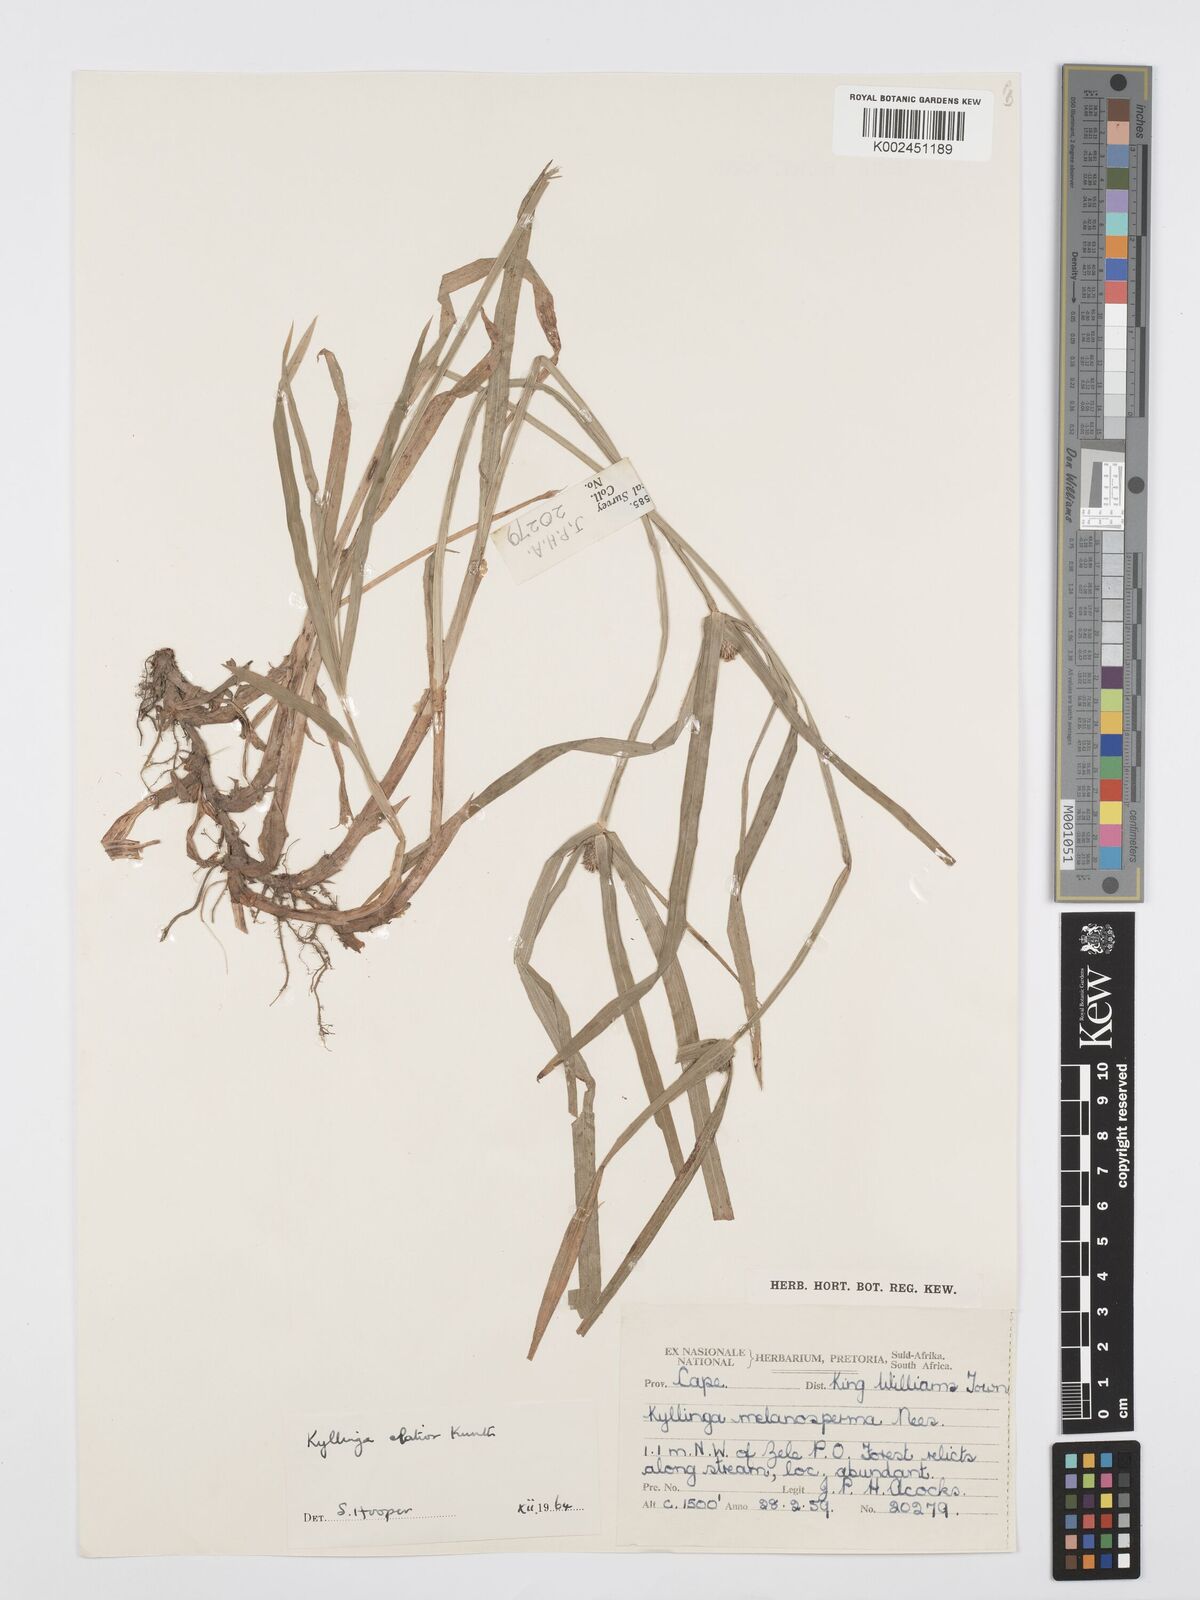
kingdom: Plantae
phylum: Tracheophyta
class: Liliopsida
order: Poales
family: Cyperaceae
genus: Cyperus
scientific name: Cyperus ruwenzoriensis
